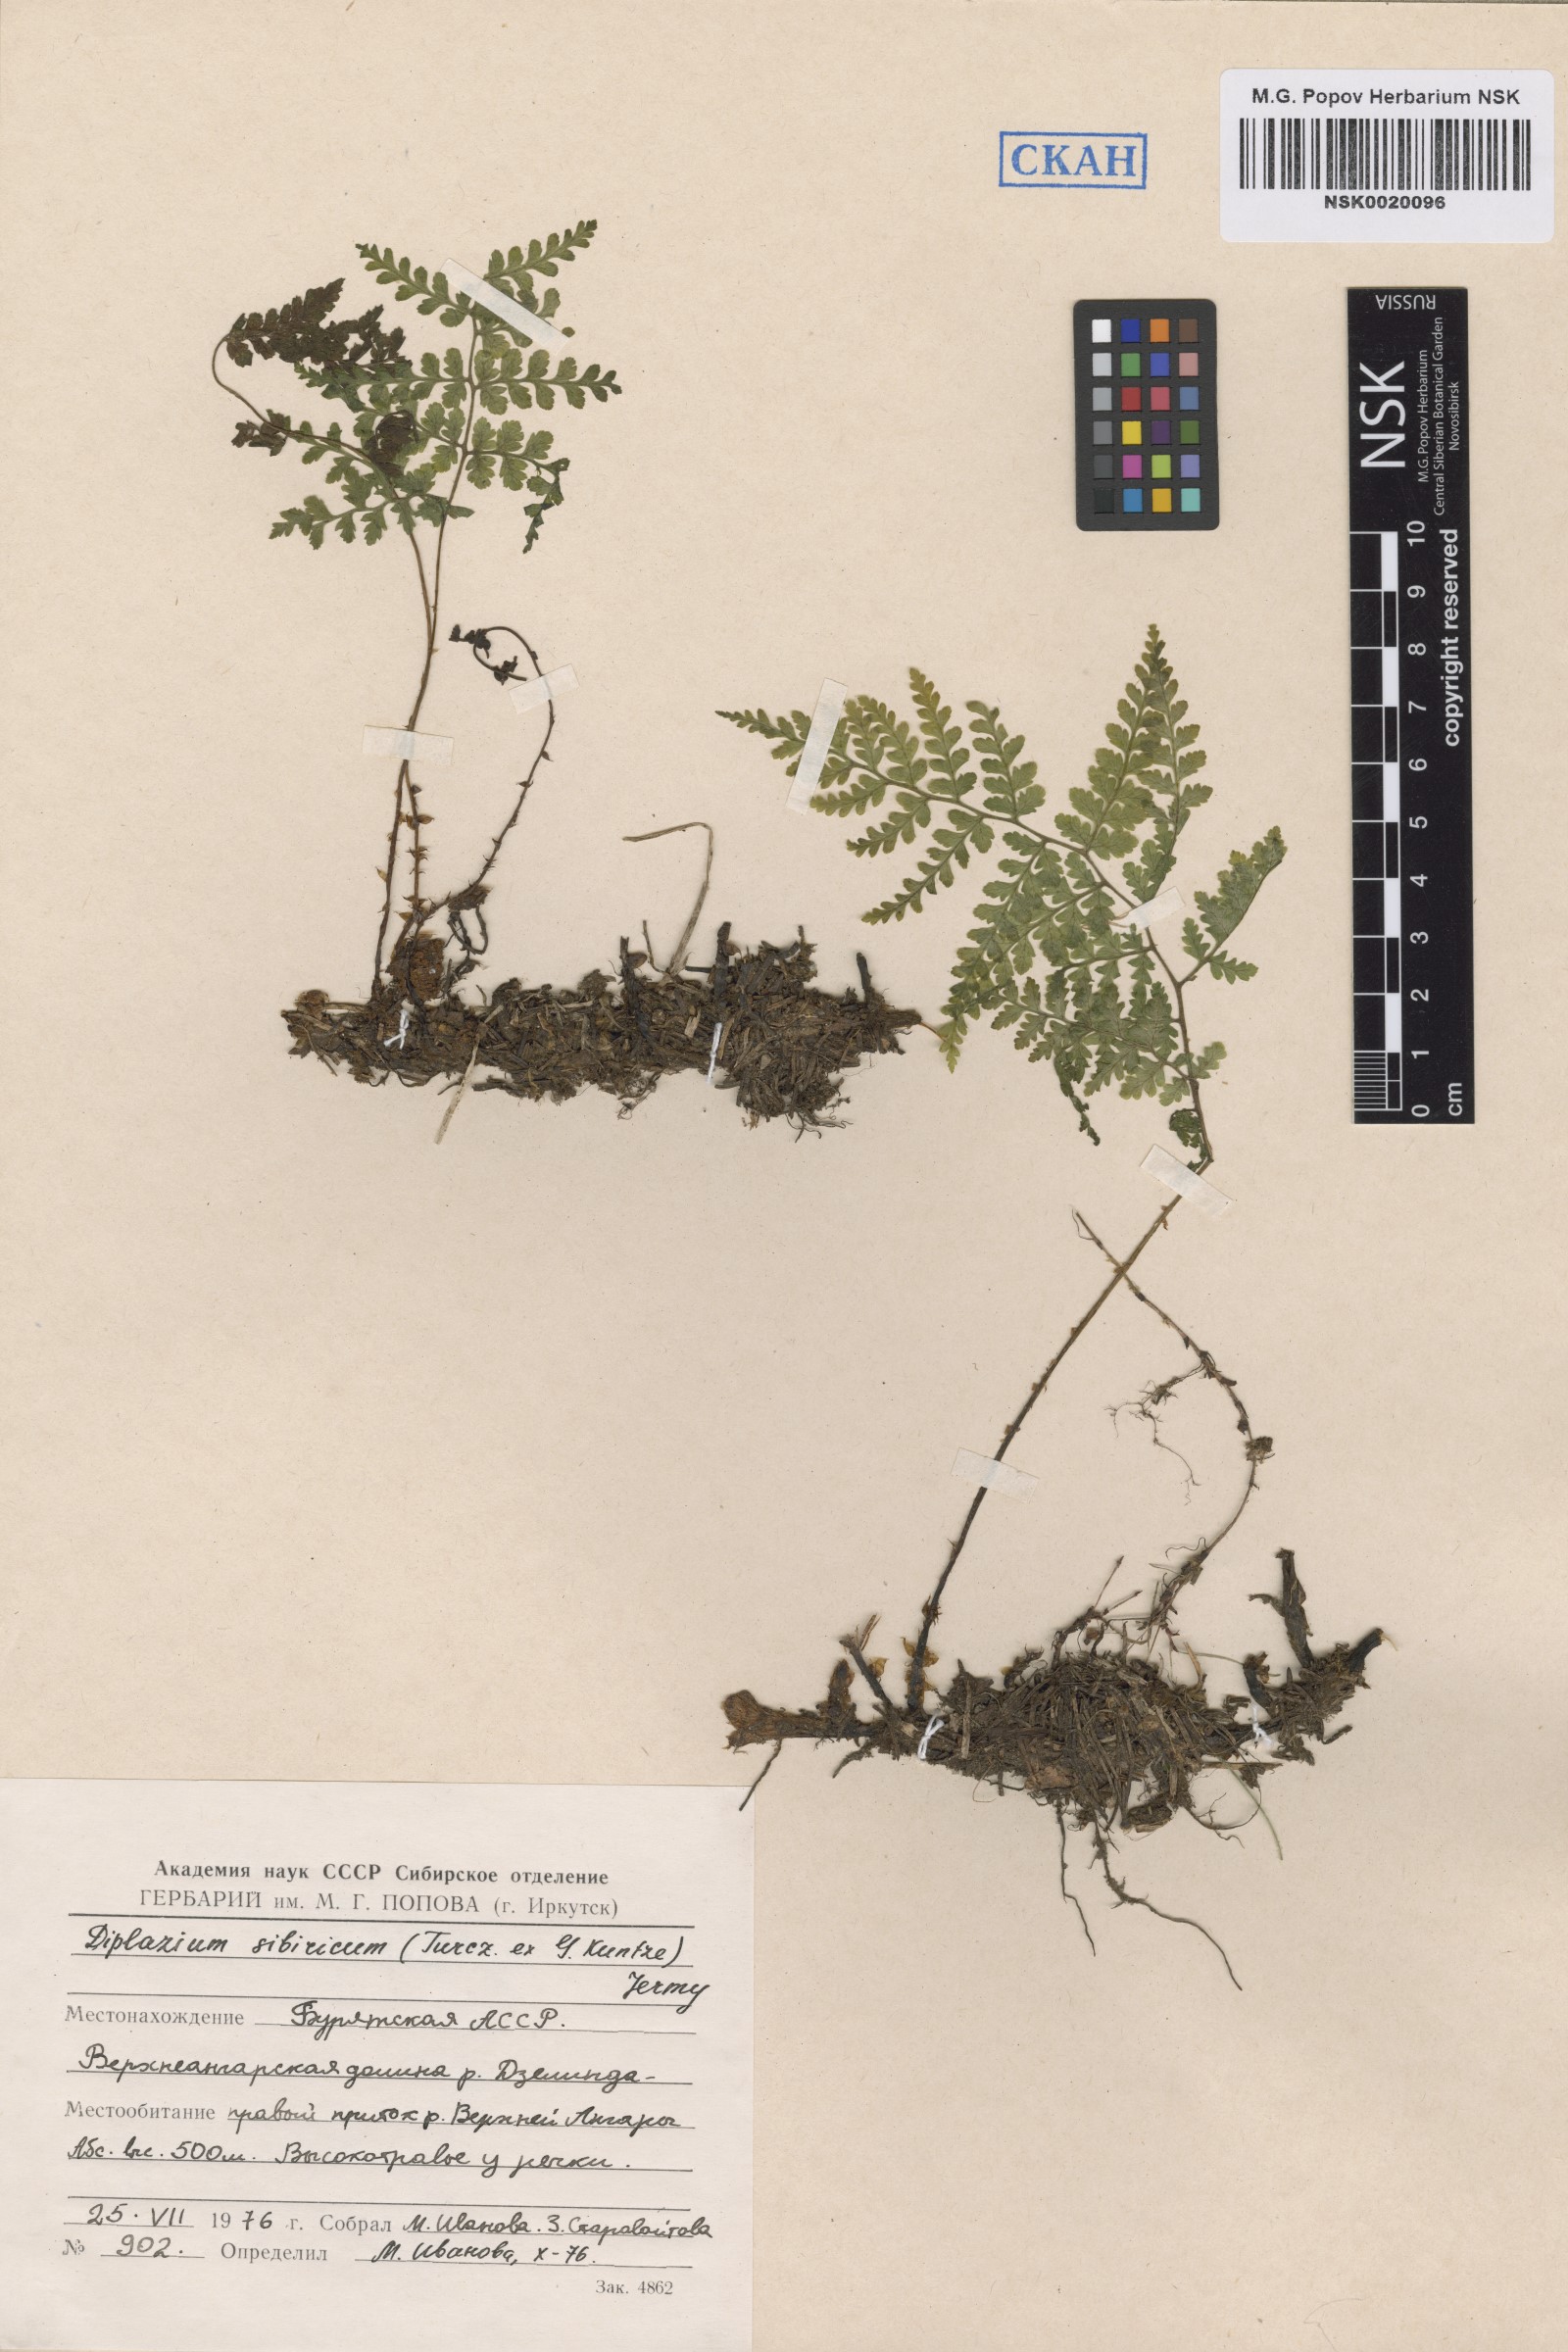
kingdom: Plantae
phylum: Tracheophyta
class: Polypodiopsida
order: Polypodiales
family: Athyriaceae
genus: Diplazium
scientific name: Diplazium sibiricum
